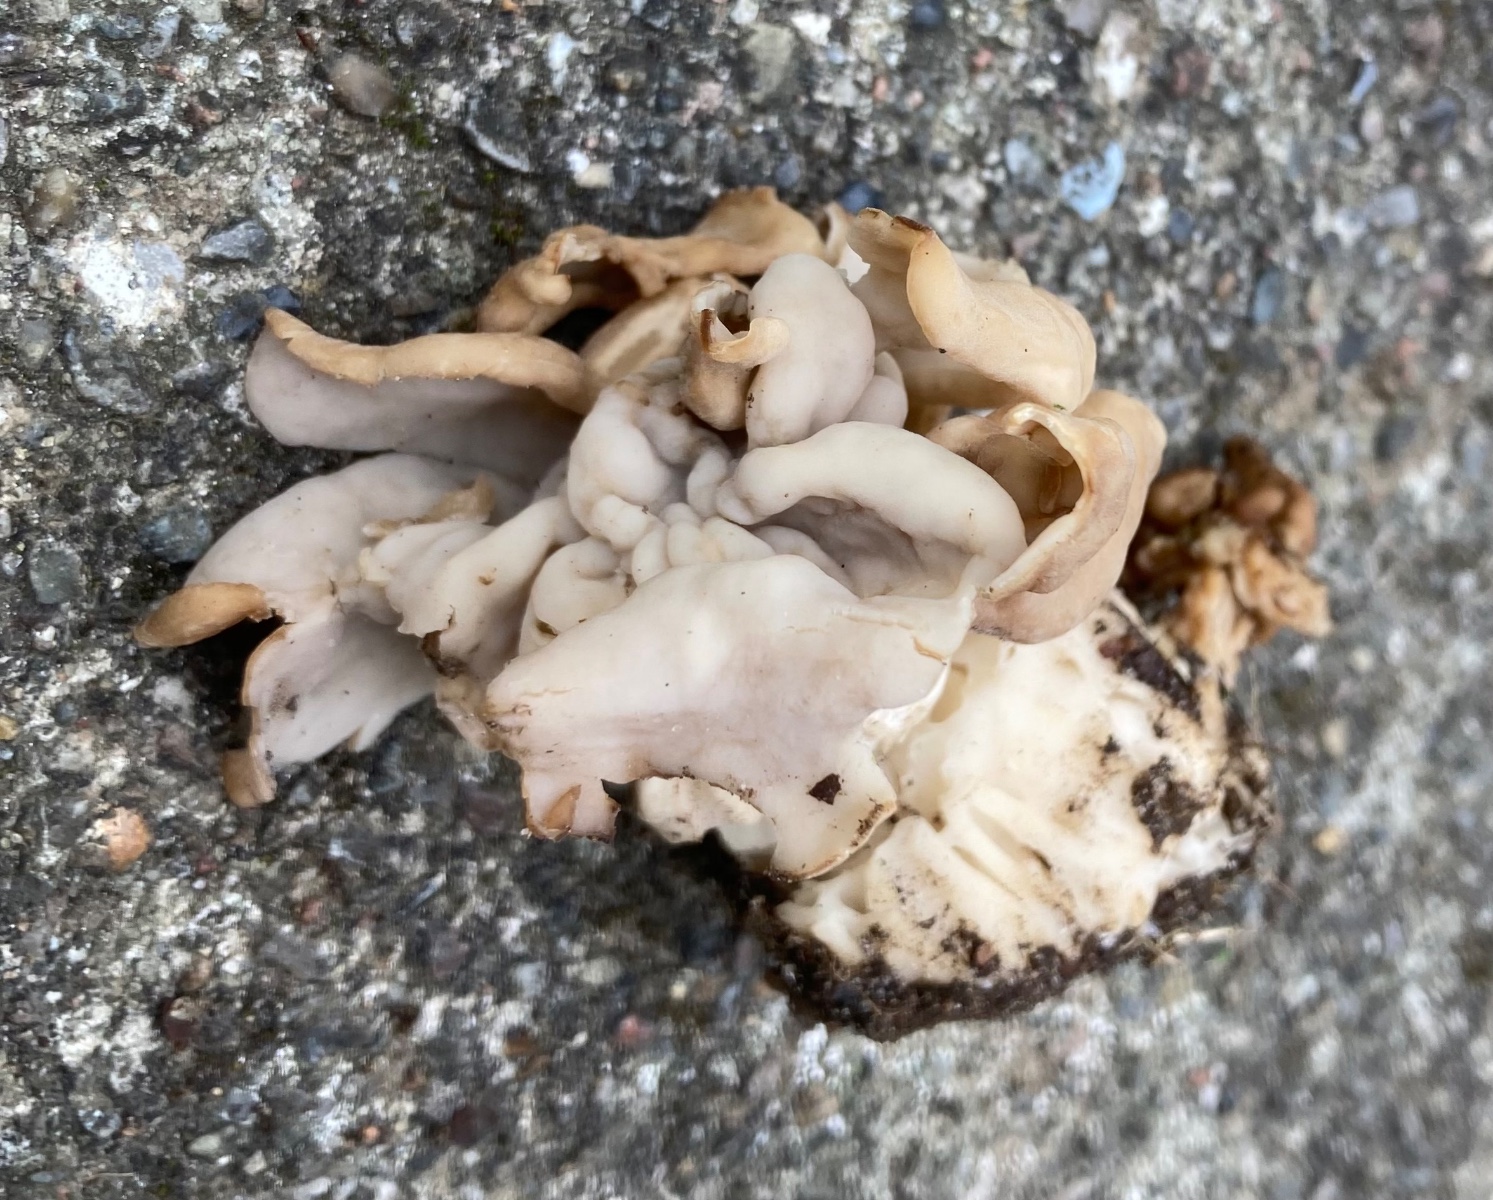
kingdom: Fungi
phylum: Ascomycota
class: Pezizomycetes
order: Pezizales
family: Helvellaceae
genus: Helvella
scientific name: Helvella crispa
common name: kruset foldhat
